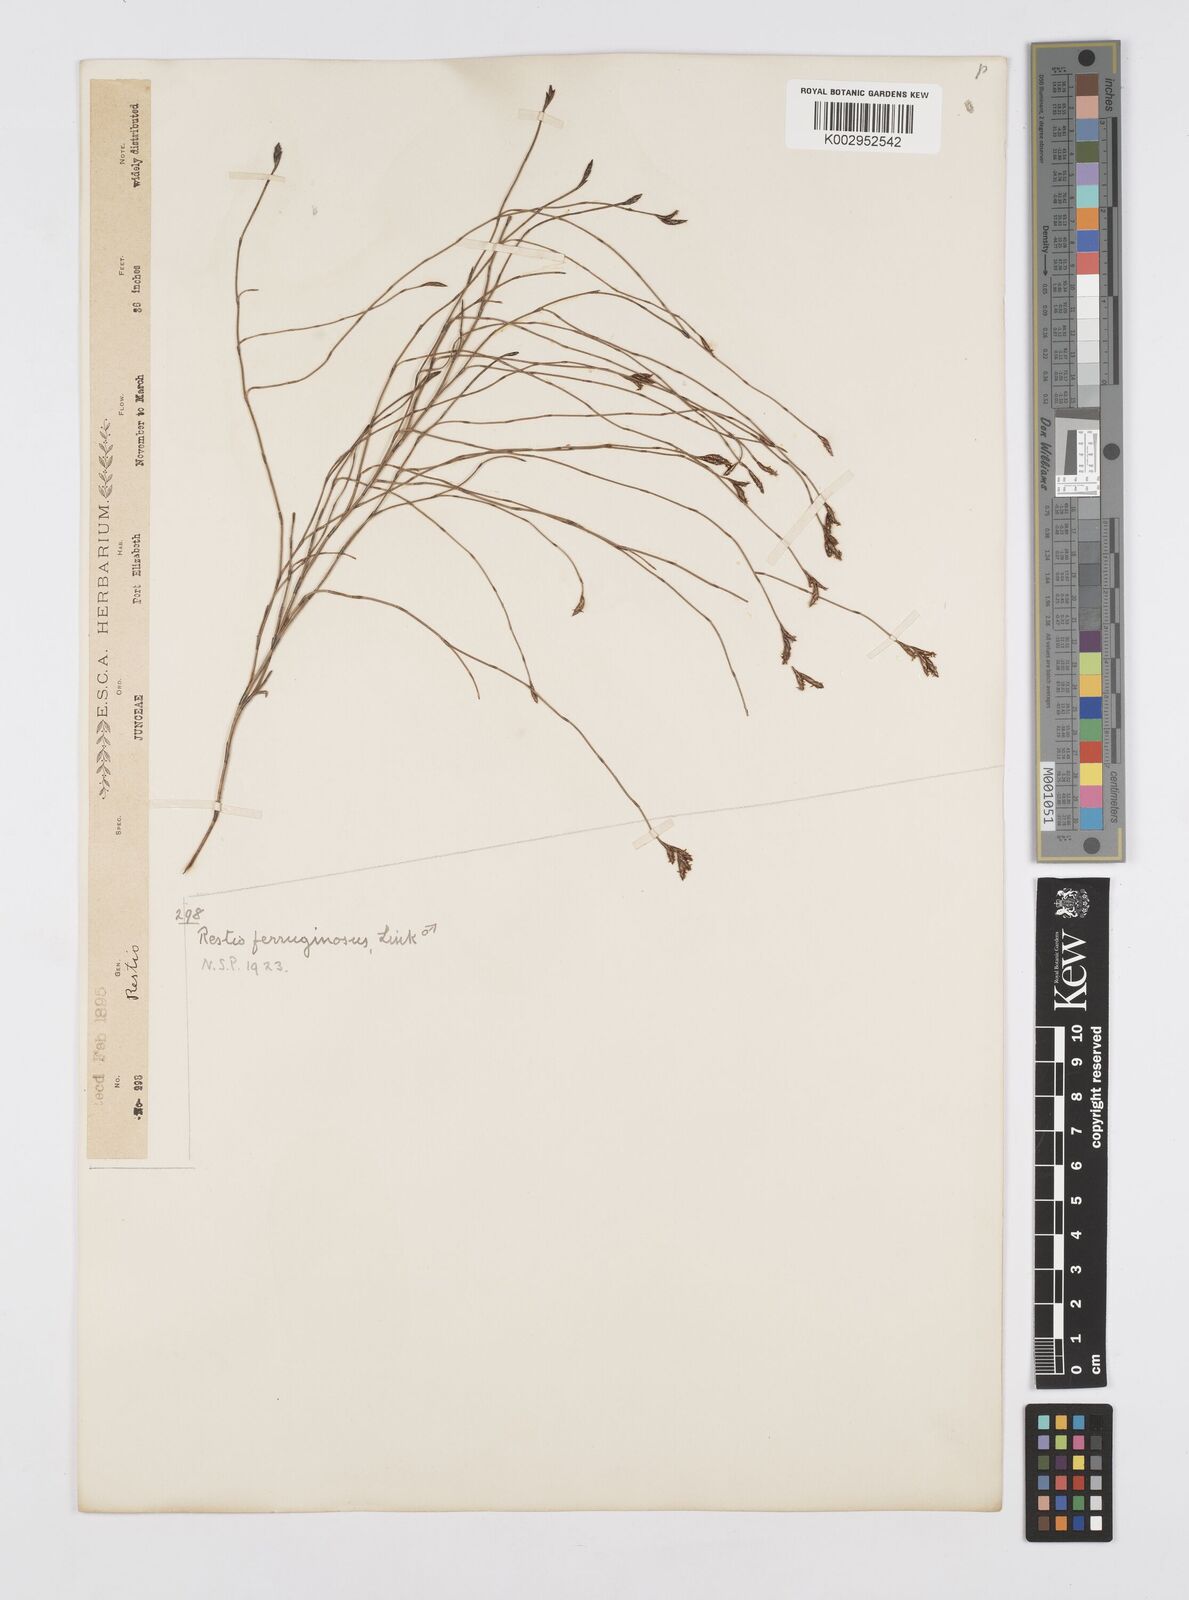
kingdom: Plantae
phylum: Tracheophyta
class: Liliopsida
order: Poales
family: Restionaceae
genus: Restio
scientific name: Restio gaudichaudianus
